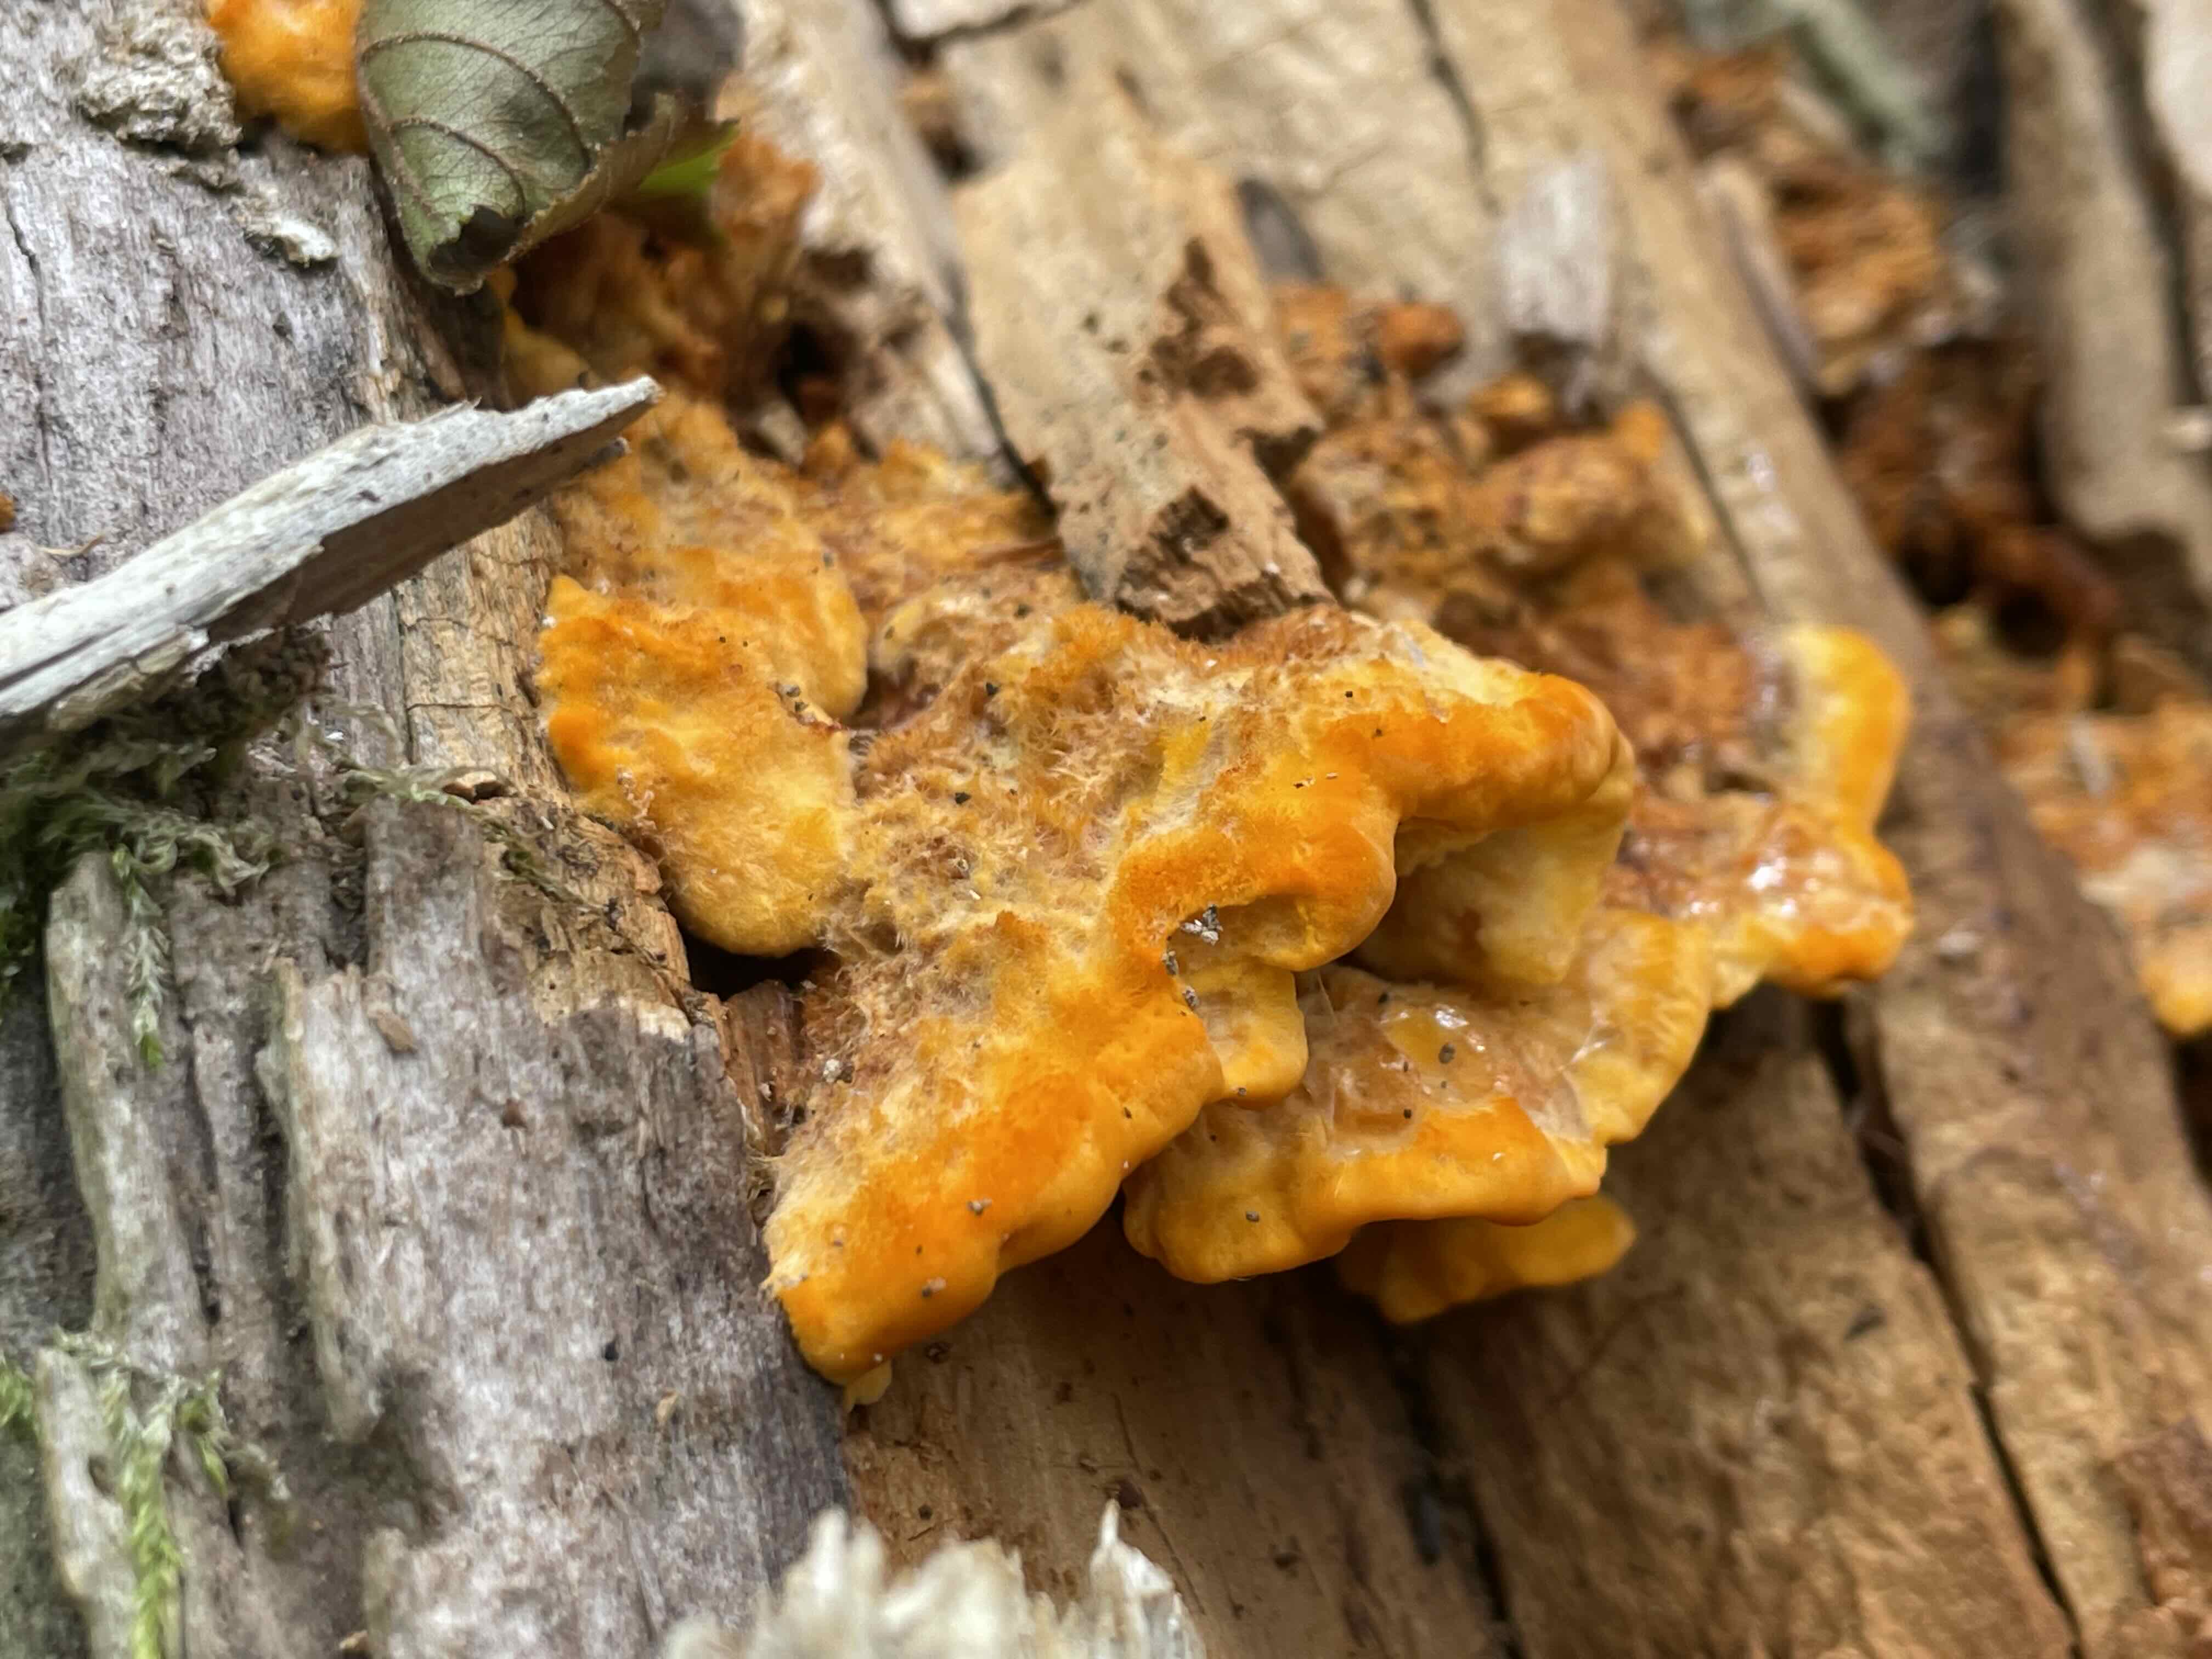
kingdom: Fungi
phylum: Basidiomycota
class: Agaricomycetes
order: Polyporales
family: Pycnoporellaceae
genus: Pycnoporellus
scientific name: Pycnoporellus fulgens
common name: flammeporesvamp
